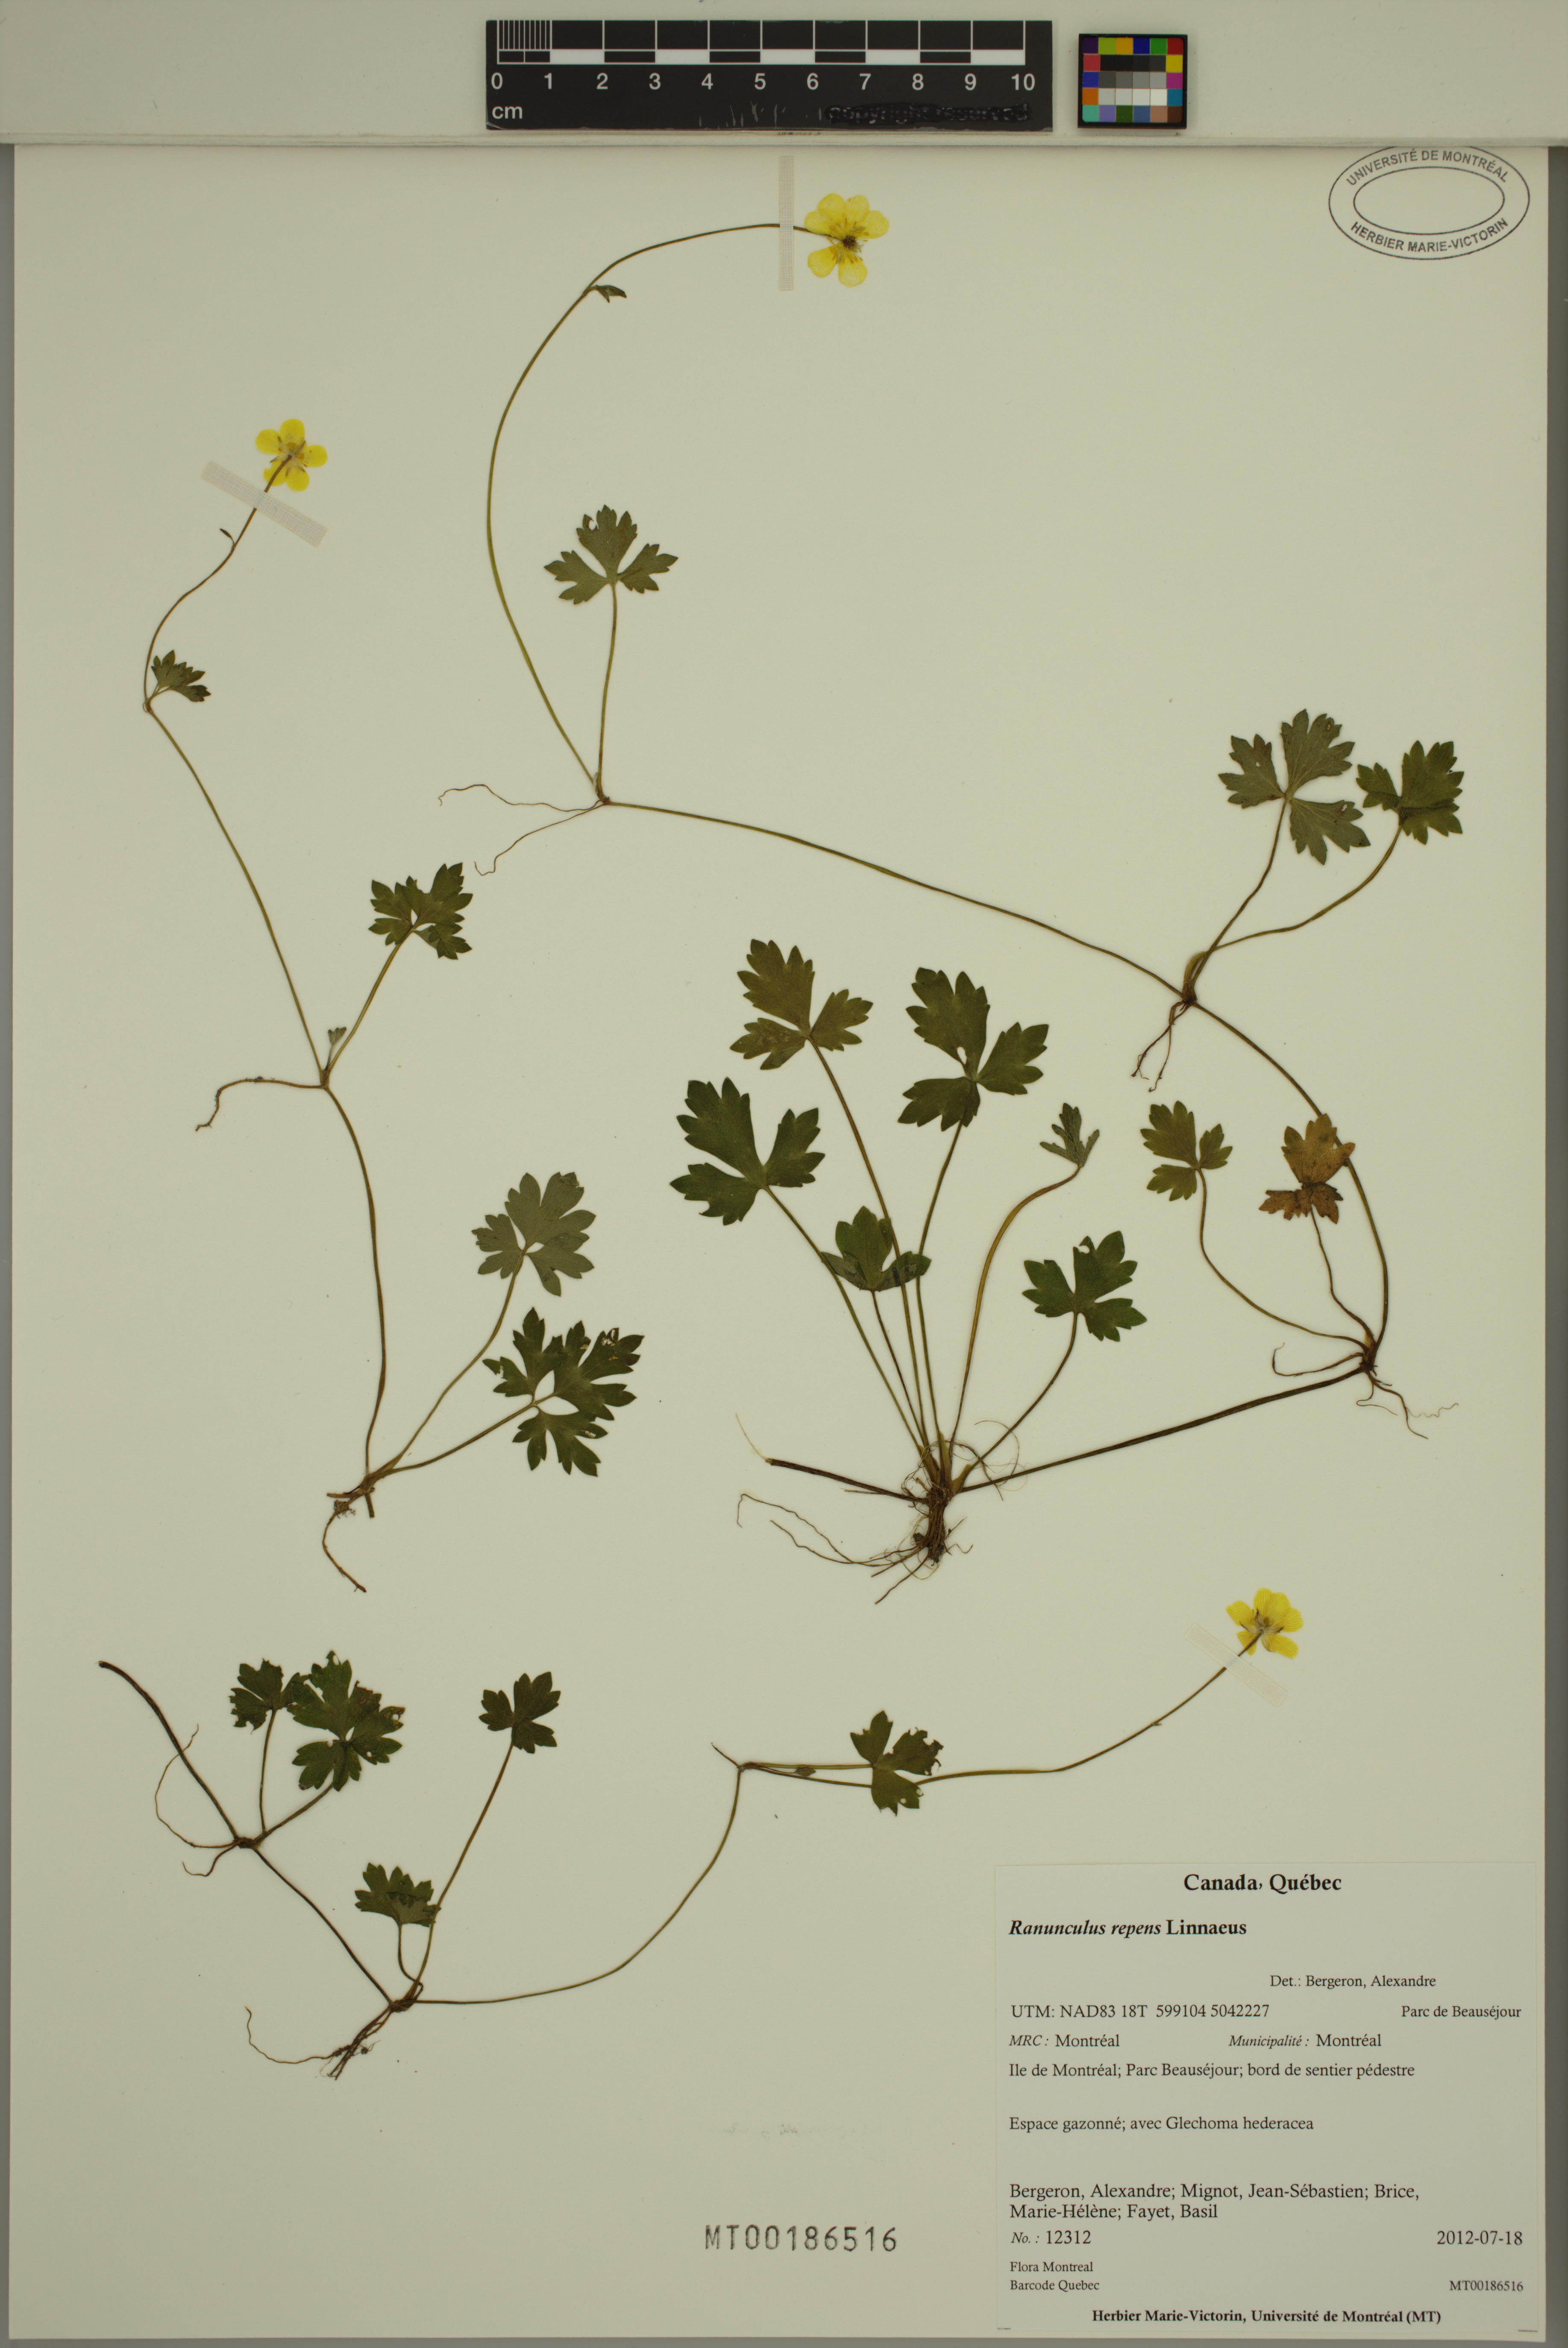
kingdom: Plantae
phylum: Tracheophyta
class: Magnoliopsida
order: Ranunculales
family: Ranunculaceae
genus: Ranunculus
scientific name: Ranunculus repens
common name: Creeping buttercup
